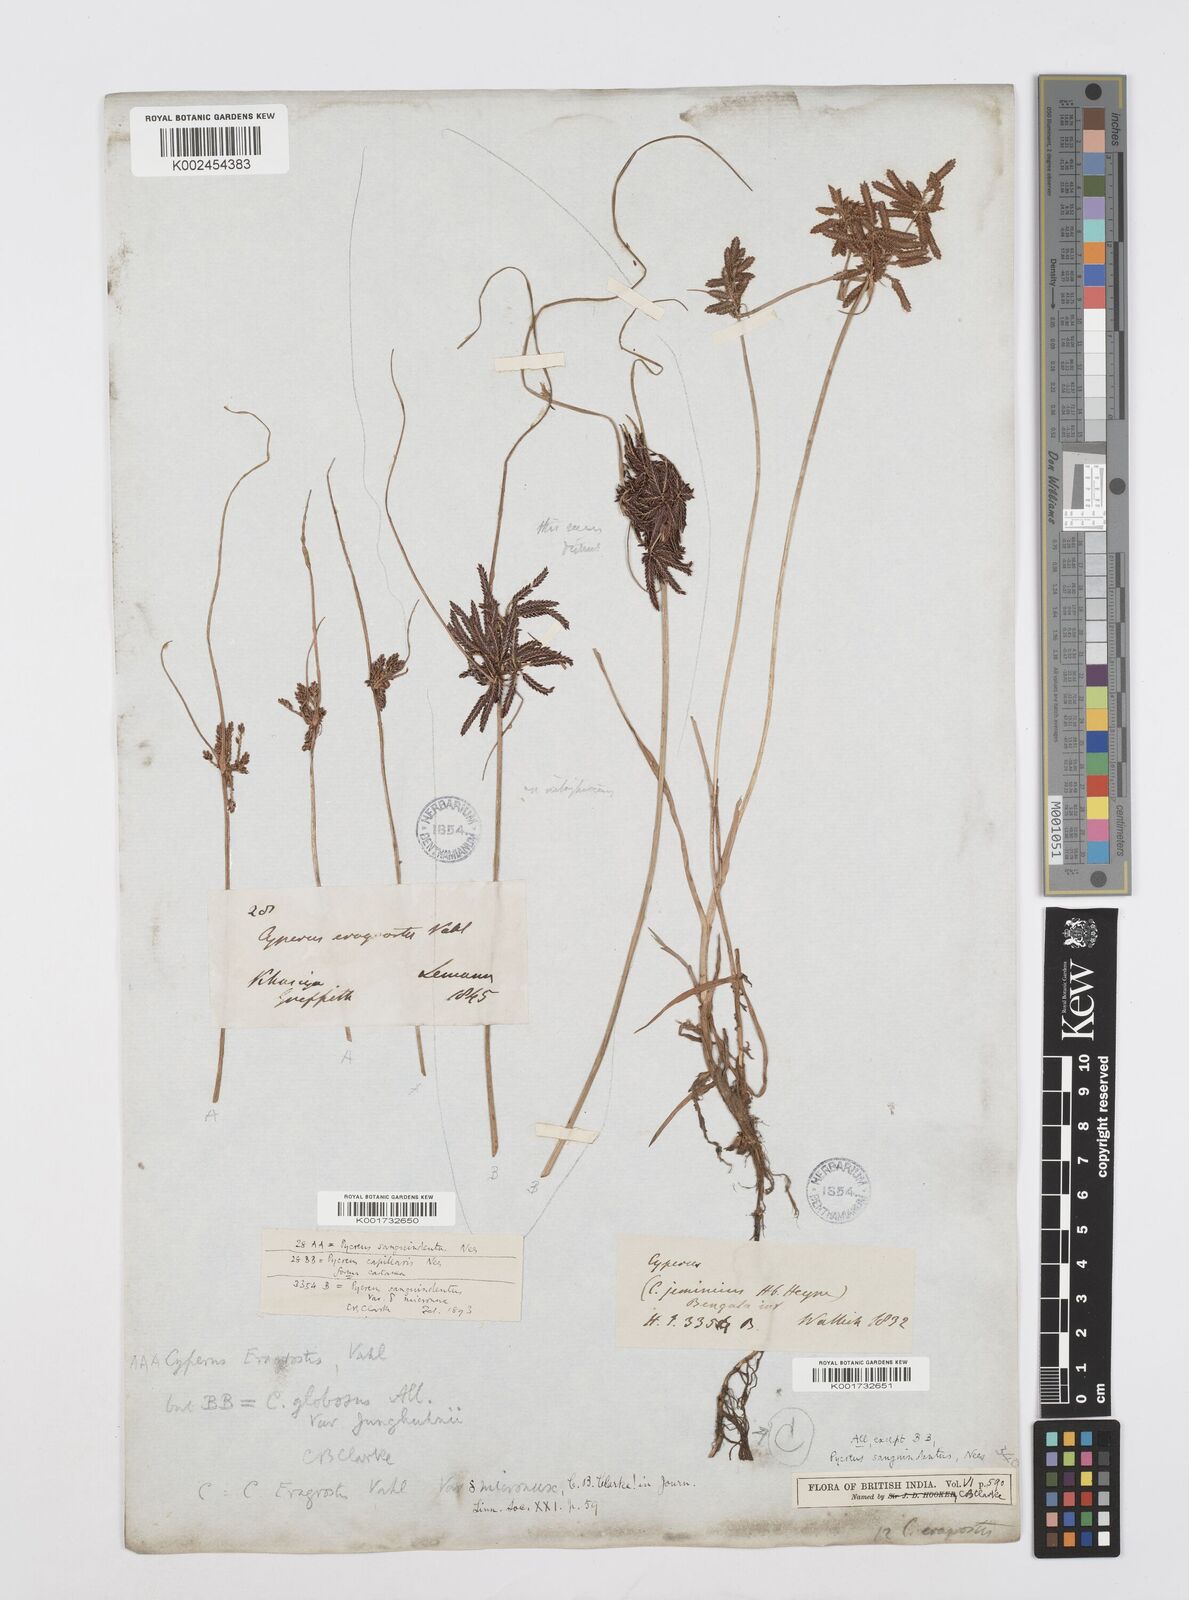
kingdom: Plantae
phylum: Tracheophyta
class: Liliopsida
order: Poales
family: Cyperaceae
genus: Cyperus
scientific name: Cyperus sanguinolentus
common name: Purpleglume flatsedge
